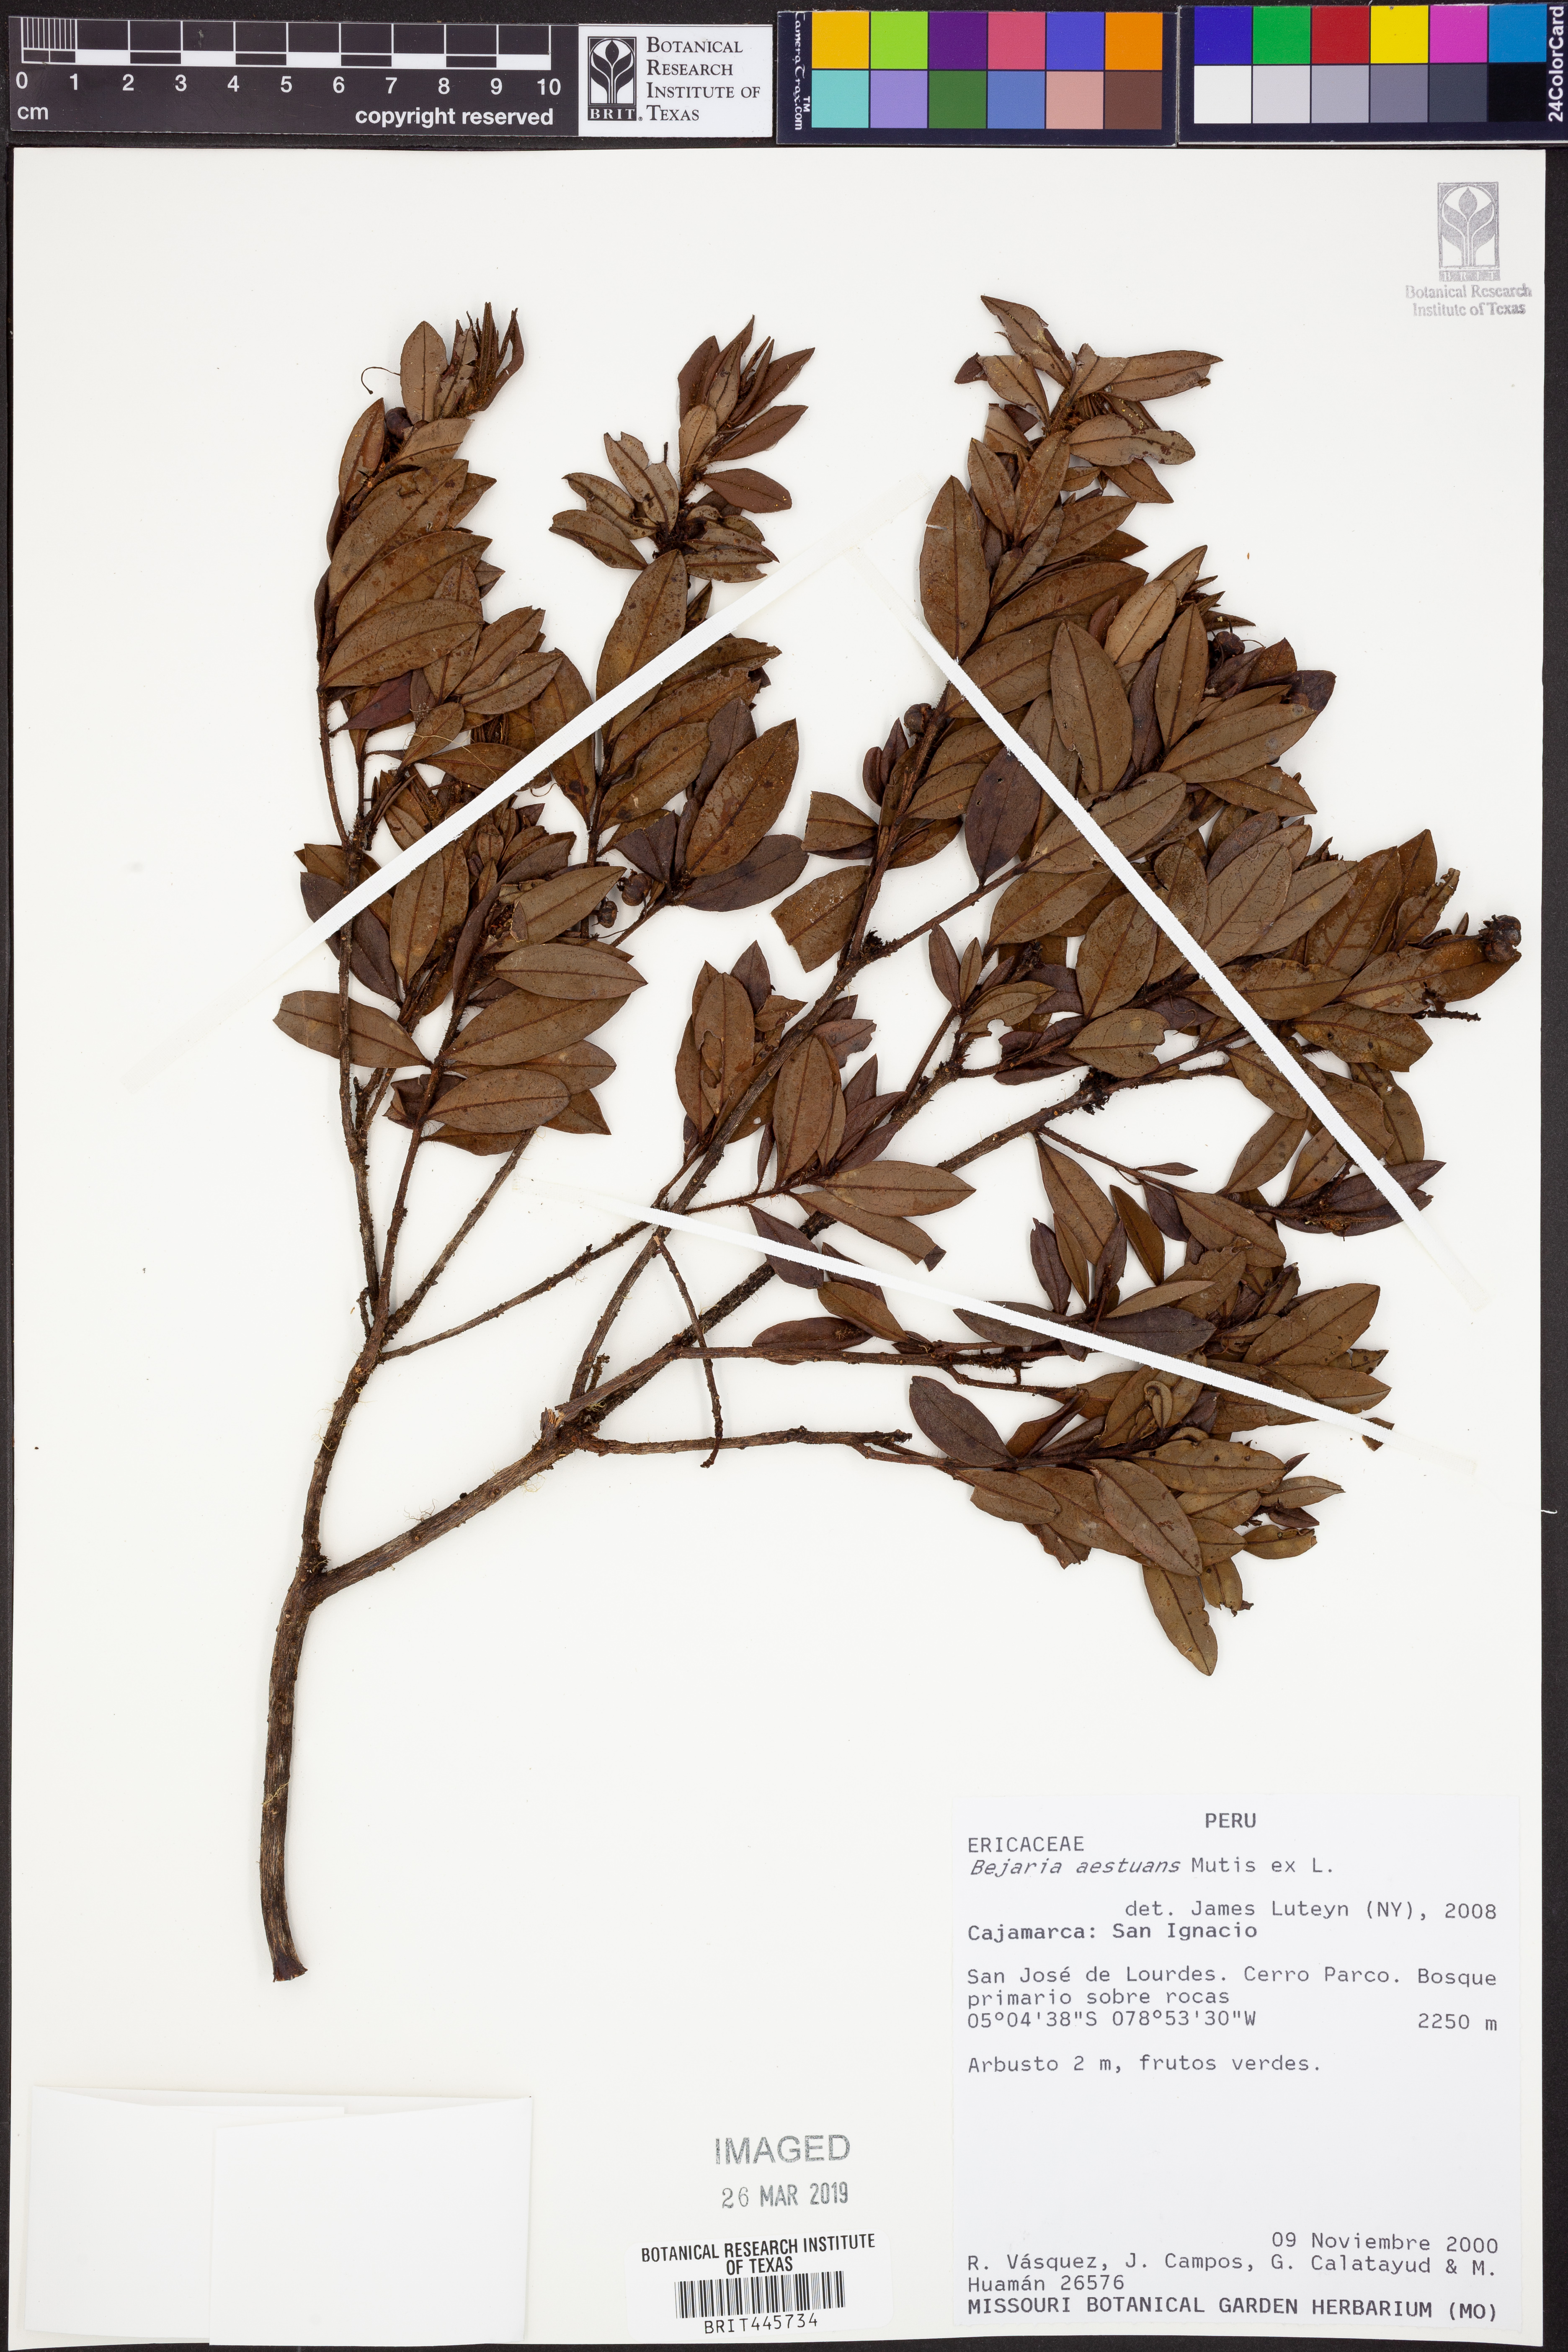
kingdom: Plantae
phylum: Tracheophyta
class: Magnoliopsida
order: Ericales
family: Ericaceae
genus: Bejaria
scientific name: Bejaria aestuans
